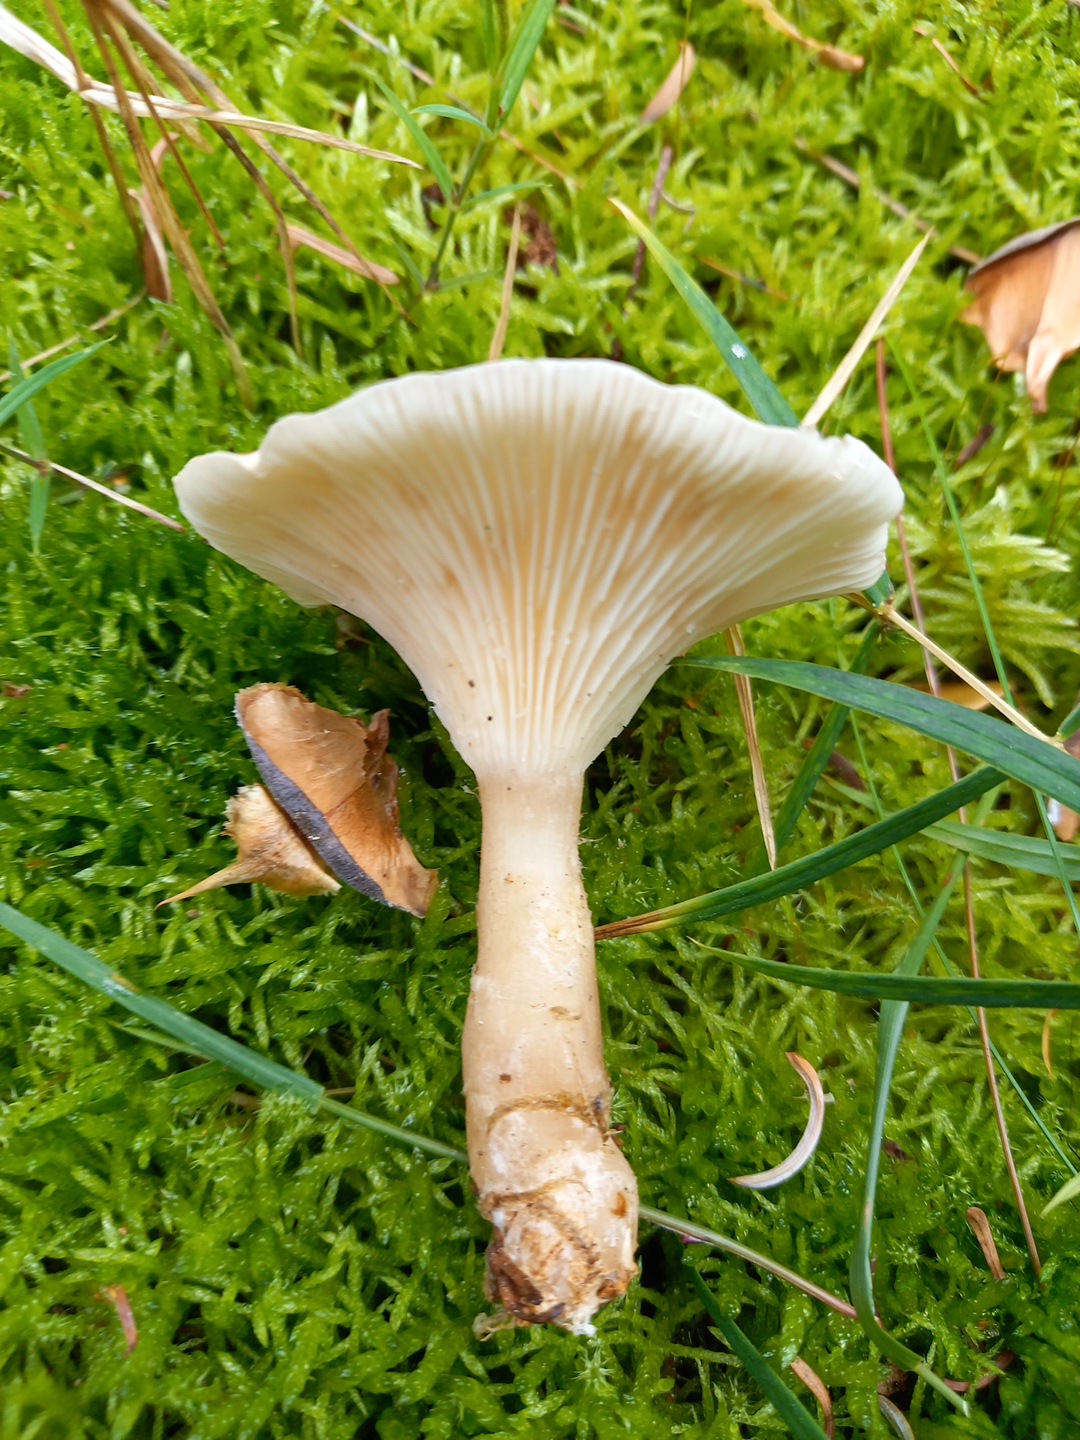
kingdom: Fungi
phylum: Basidiomycota
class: Agaricomycetes
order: Agaricales
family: Hygrophoraceae
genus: Ampulloclitocybe
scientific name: Ampulloclitocybe clavipes
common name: køllefod
